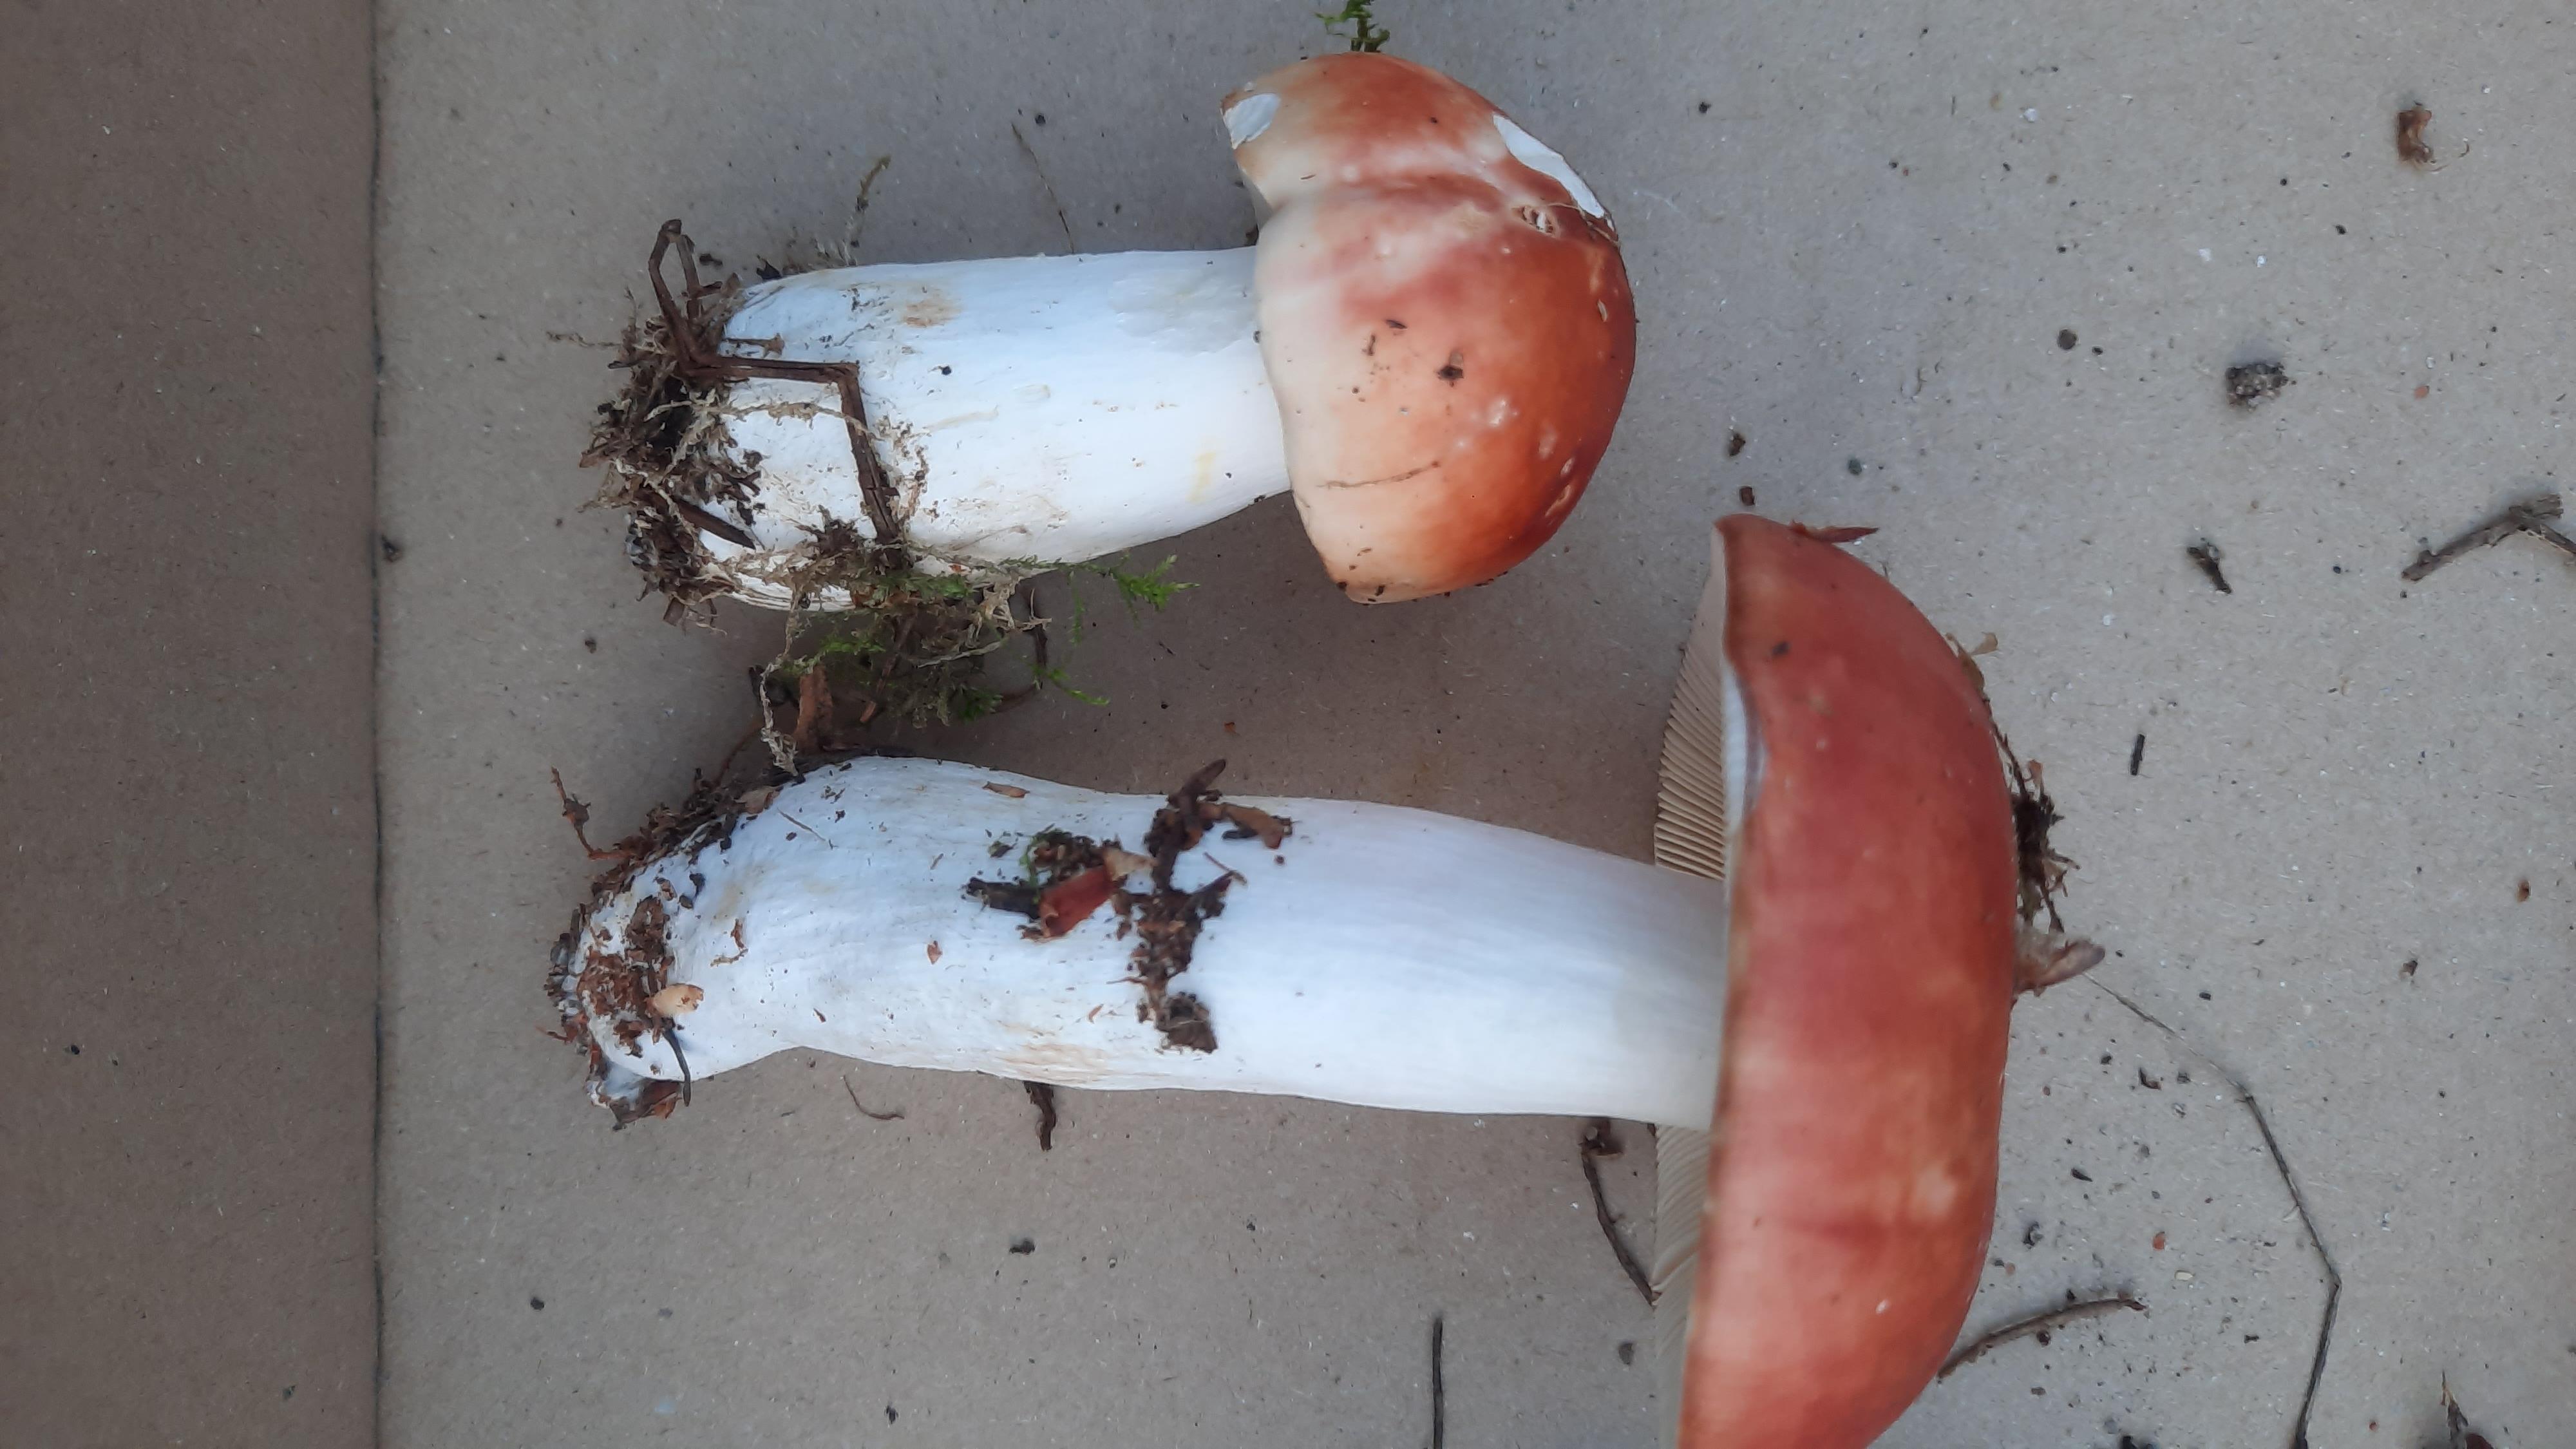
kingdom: Fungi
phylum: Basidiomycota
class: Agaricomycetes
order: Russulales
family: Russulaceae
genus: Russula
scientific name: Russula paludosa
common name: prægtig skørhat
